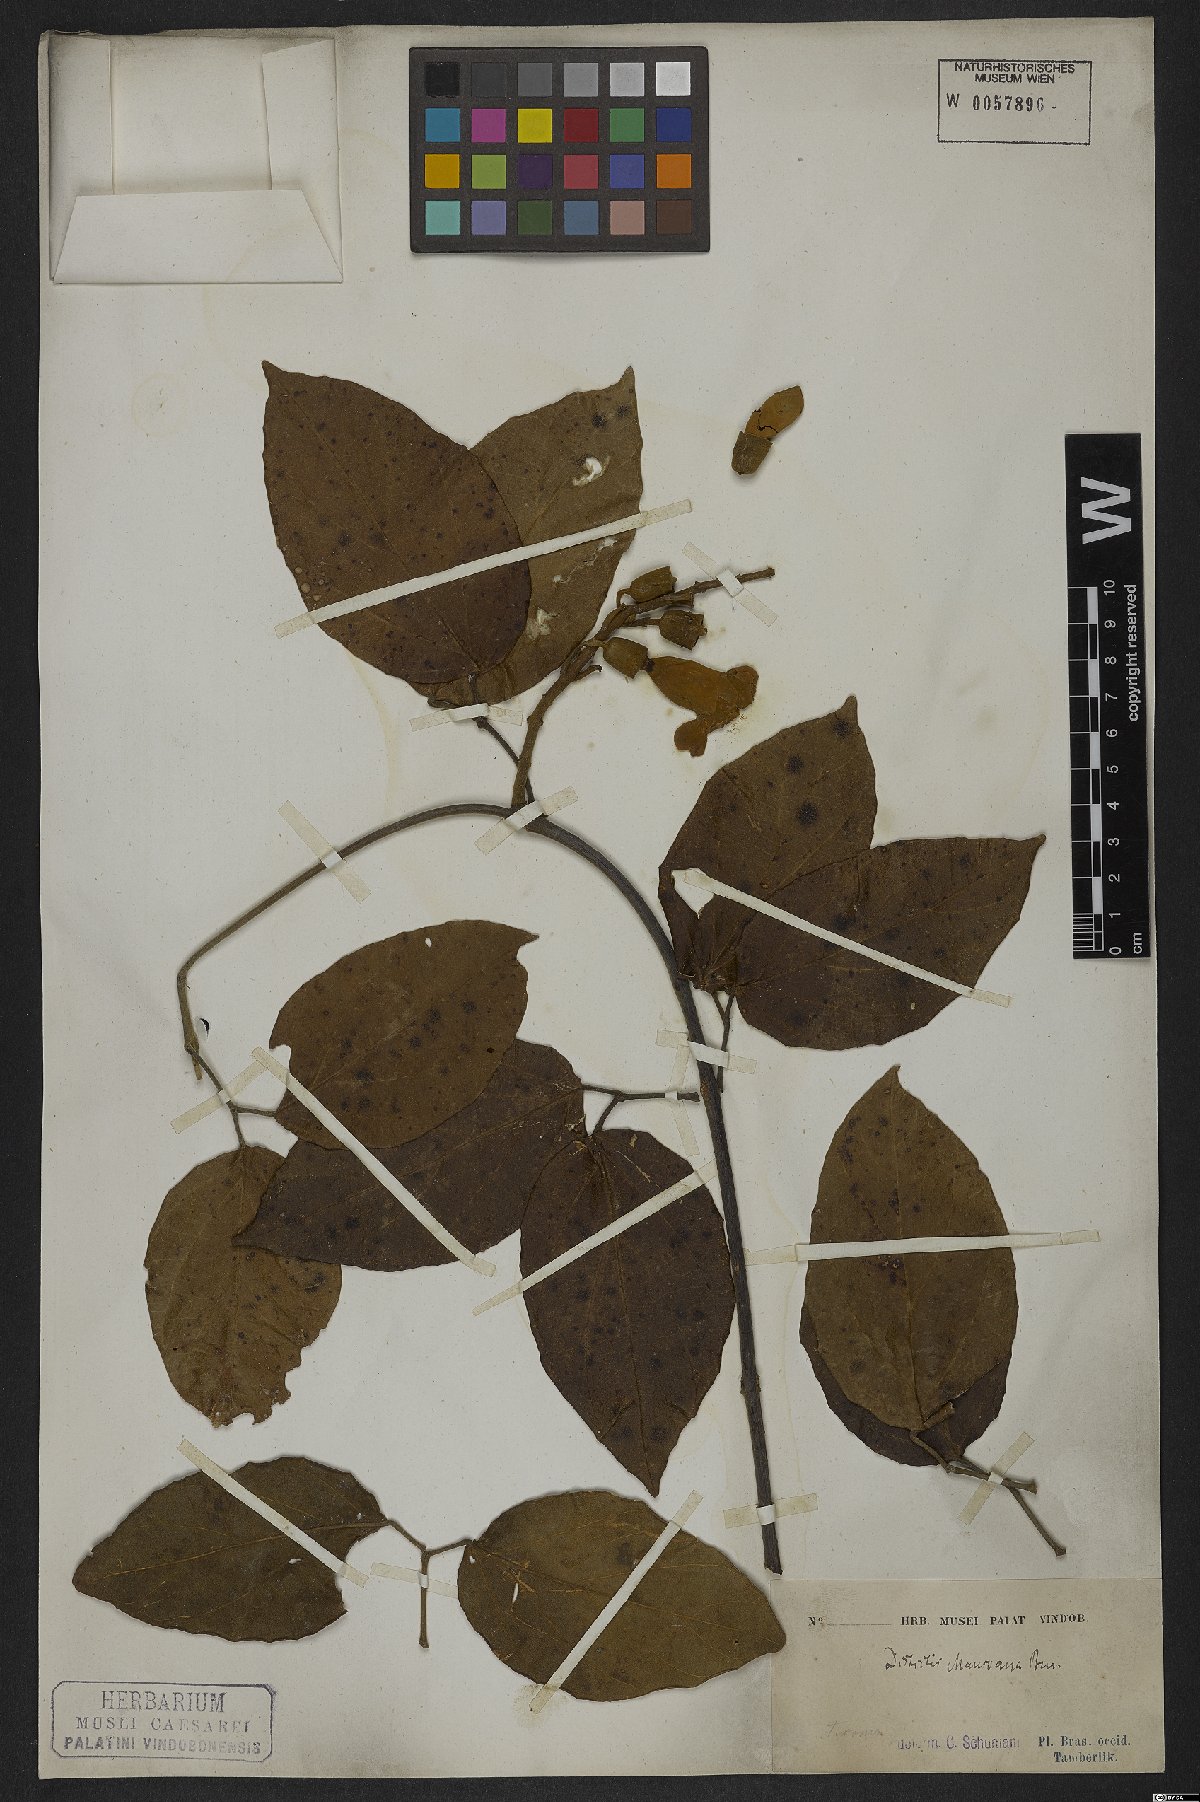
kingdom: Plantae
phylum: Tracheophyta
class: Magnoliopsida
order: Lamiales
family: Bignoniaceae
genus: Amphilophium
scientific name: Amphilophium mansoanum
